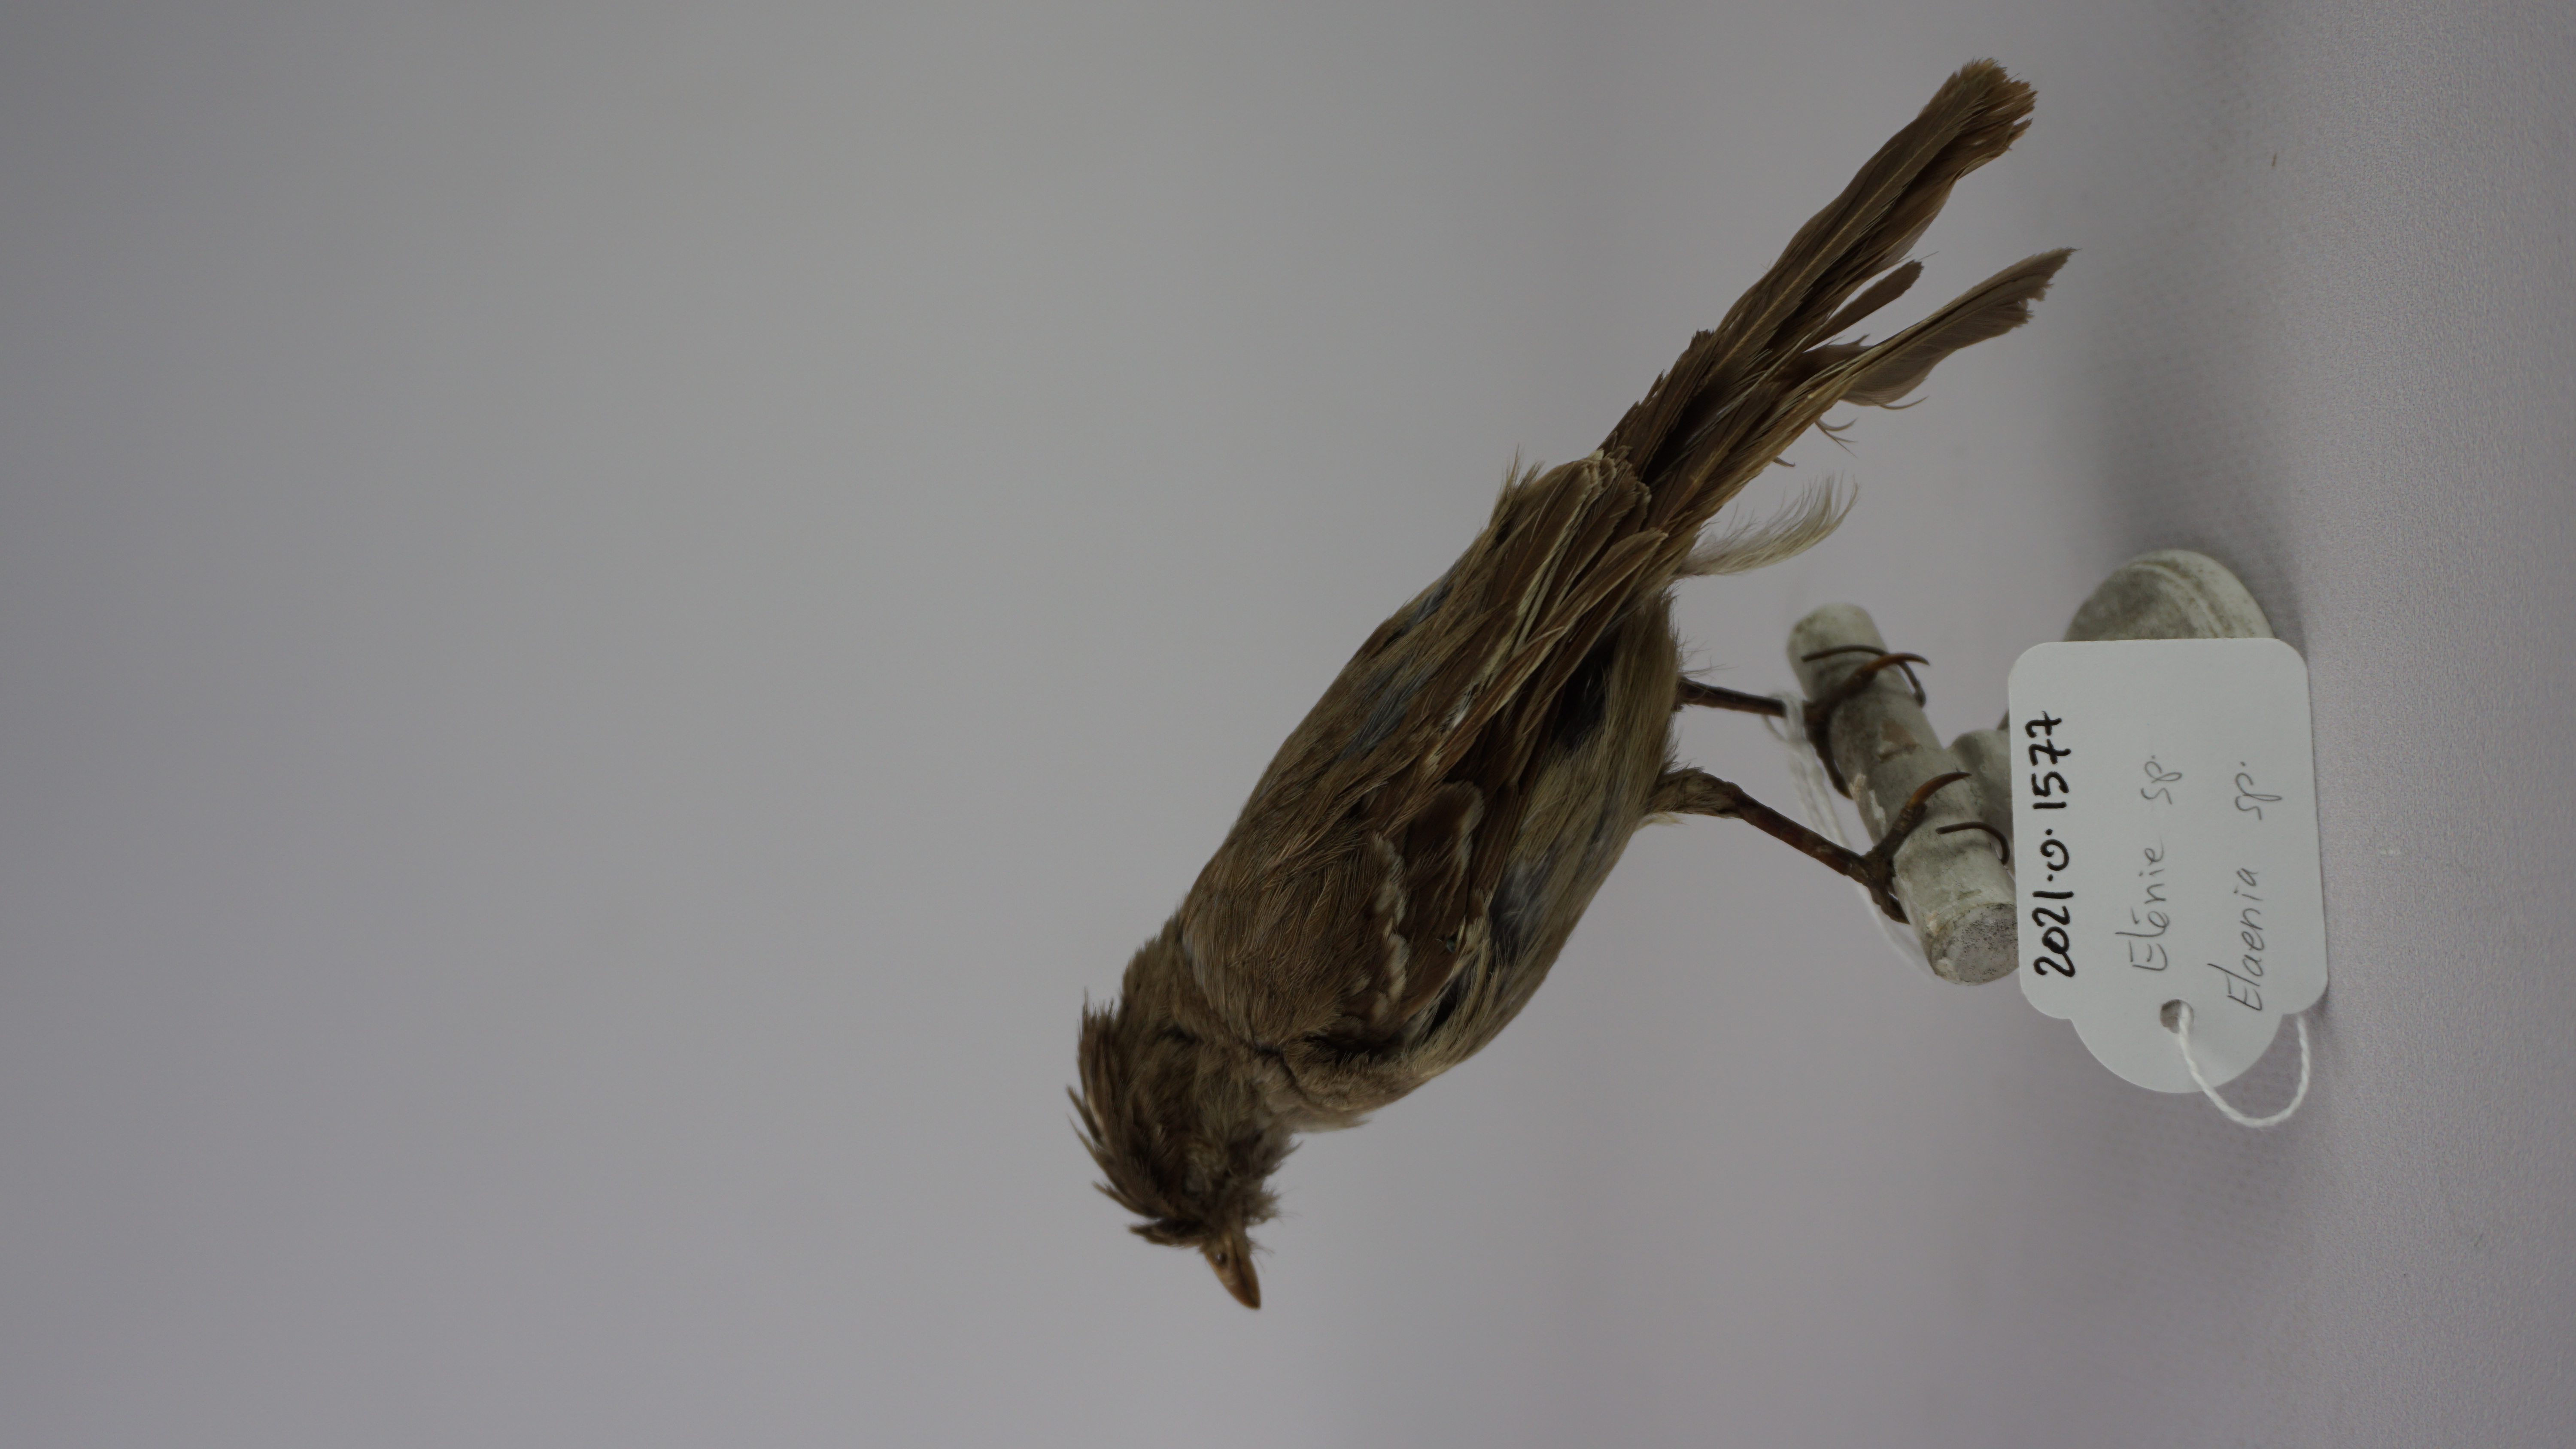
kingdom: Animalia
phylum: Chordata
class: Aves
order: Passeriformes
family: Tyrannidae
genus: Elaenia
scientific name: Elaenia
